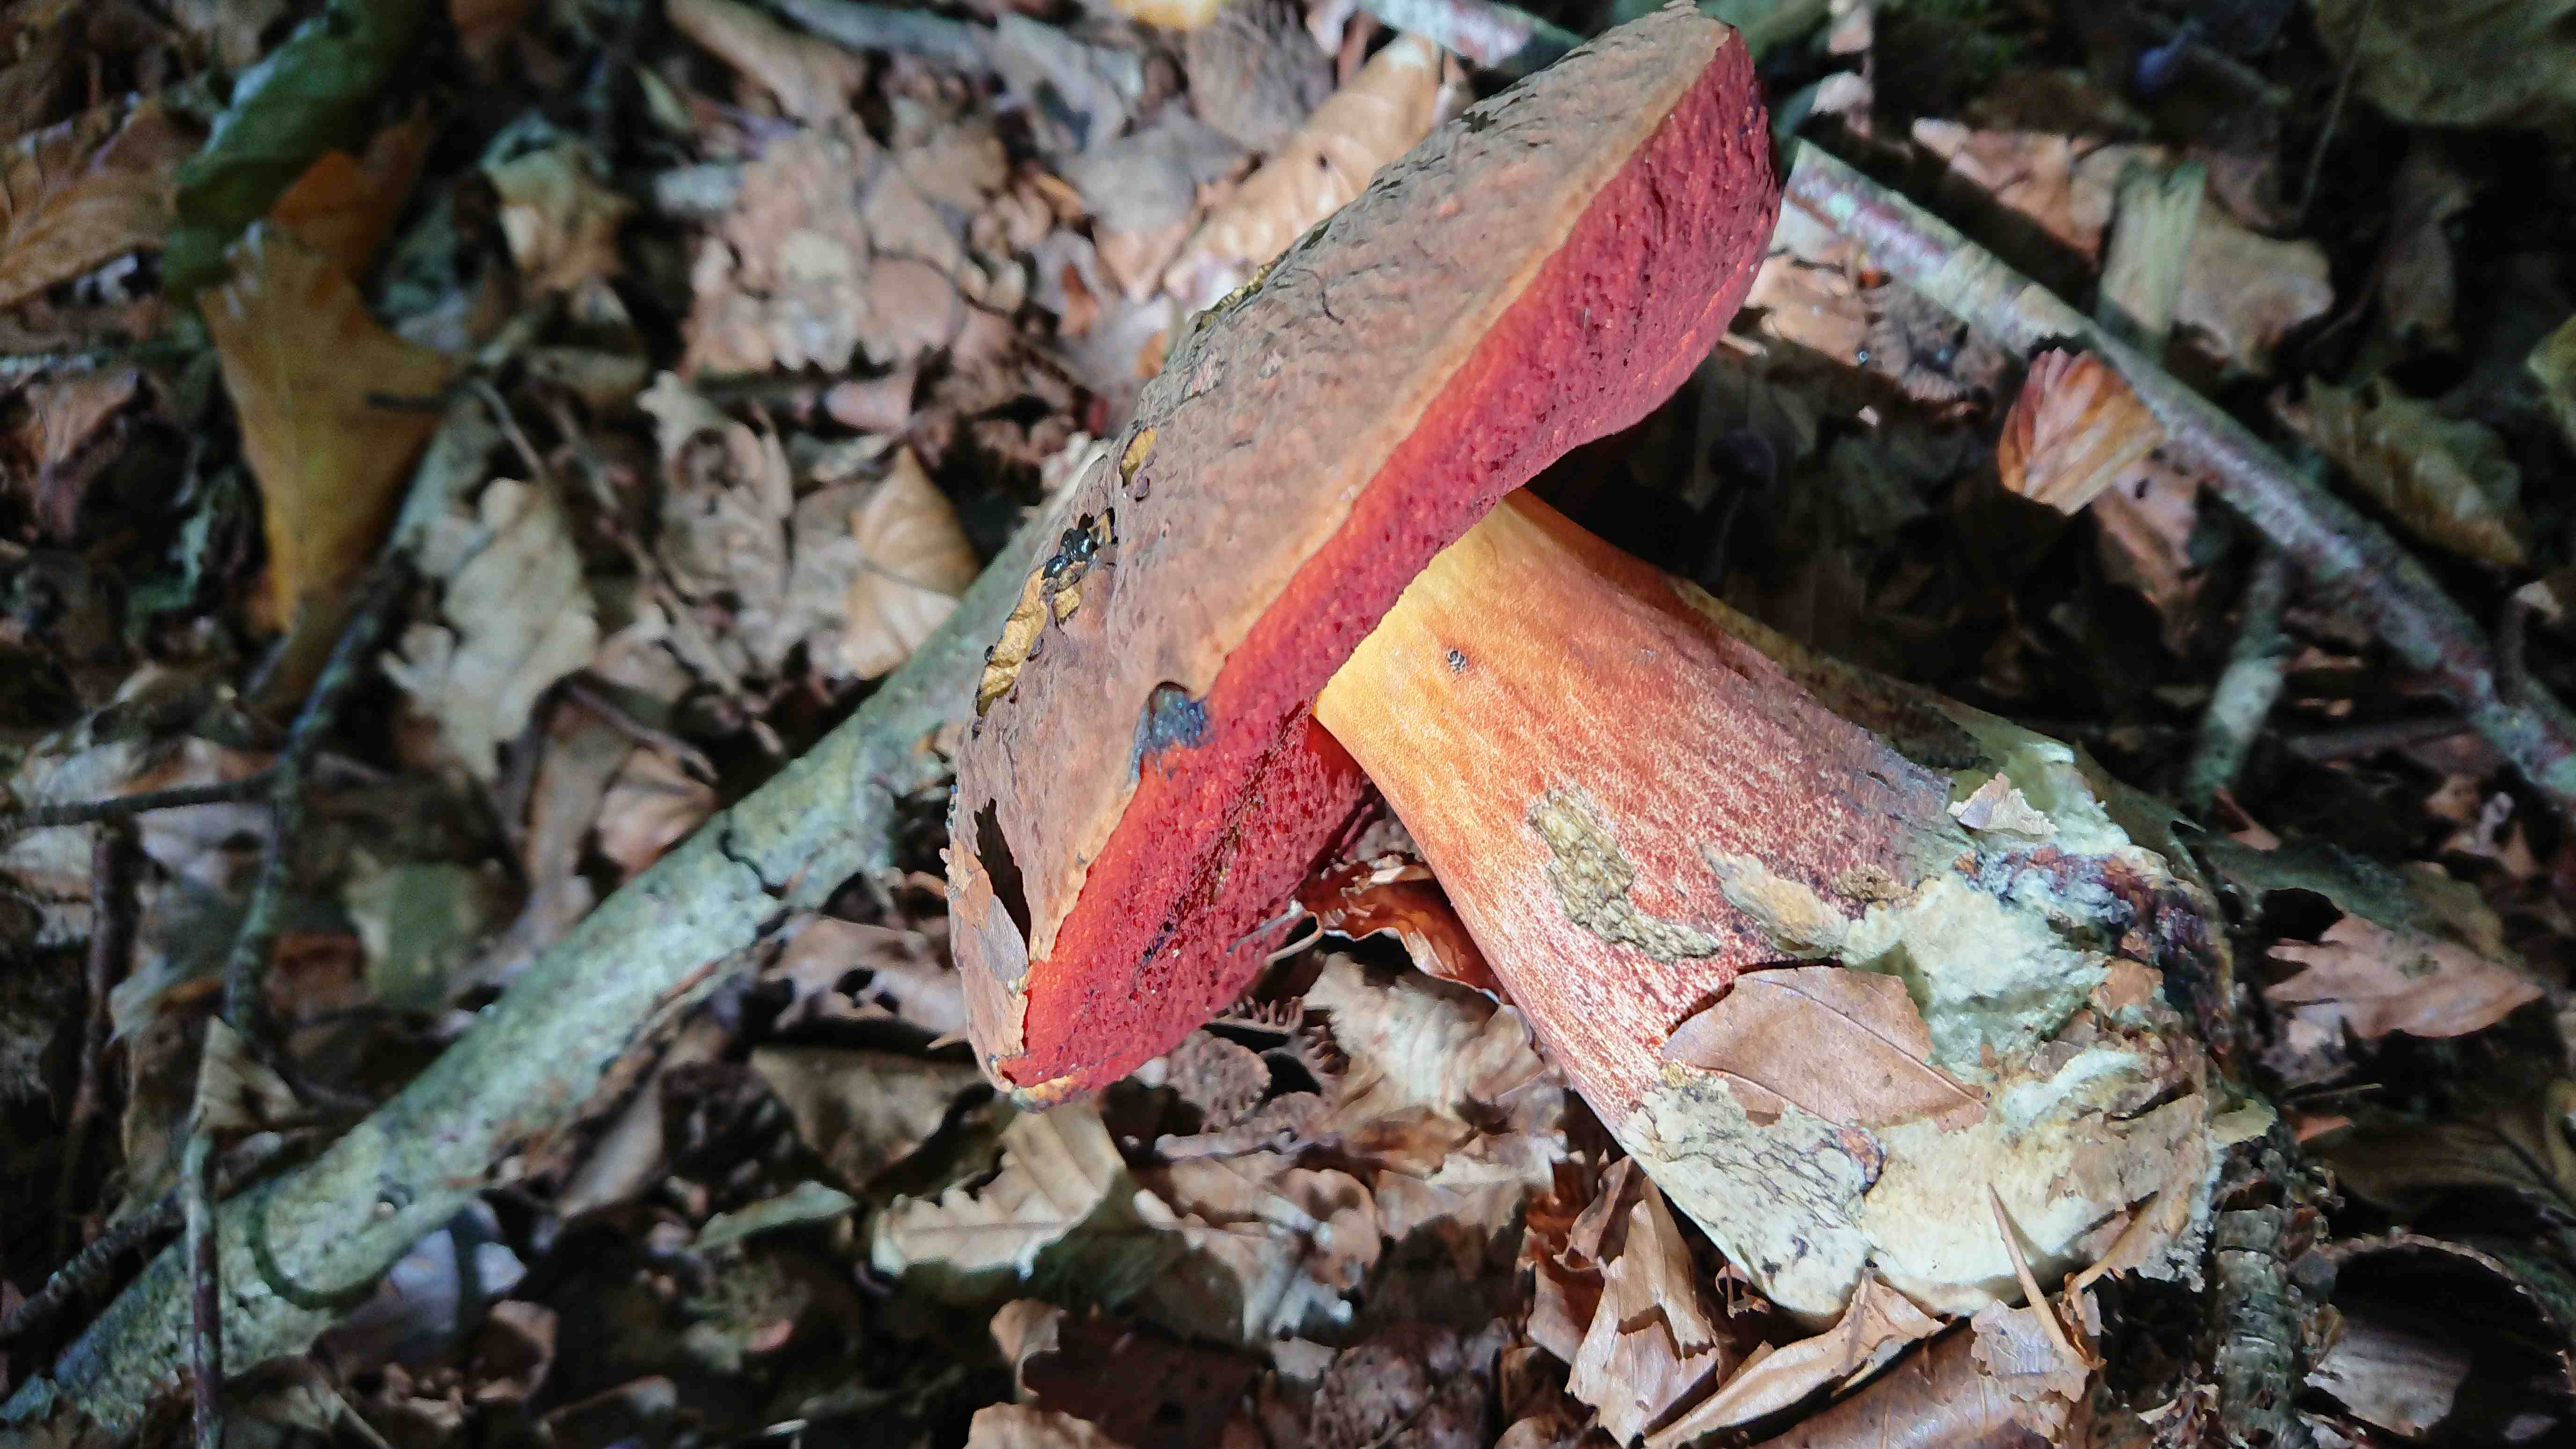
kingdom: Fungi
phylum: Basidiomycota
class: Agaricomycetes
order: Boletales
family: Boletaceae
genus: Neoboletus
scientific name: Neoboletus erythropus
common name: punktstokket indigorørhat
